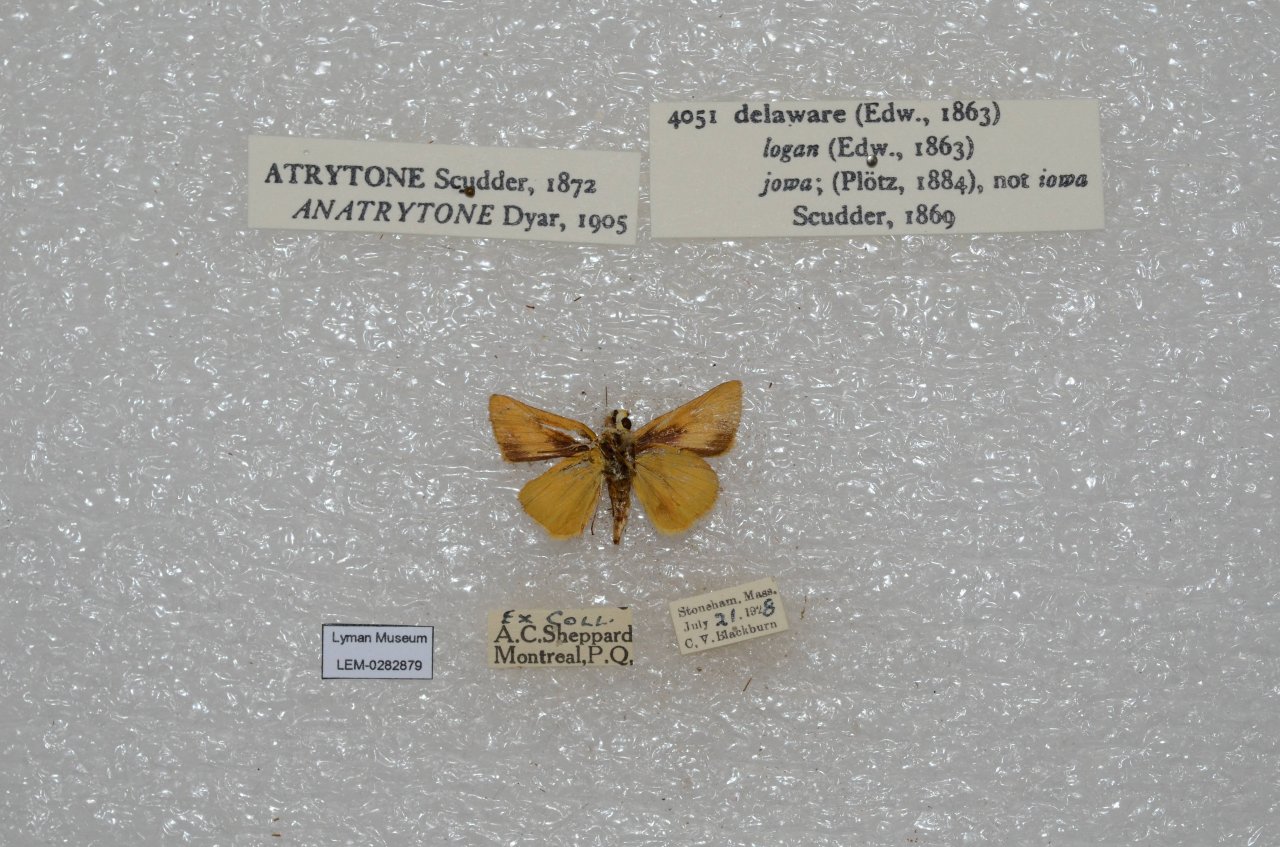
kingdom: Animalia
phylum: Arthropoda
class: Insecta
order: Lepidoptera
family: Hesperiidae
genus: Atrytone
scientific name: Atrytone delaware
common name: Delaware Skipper
